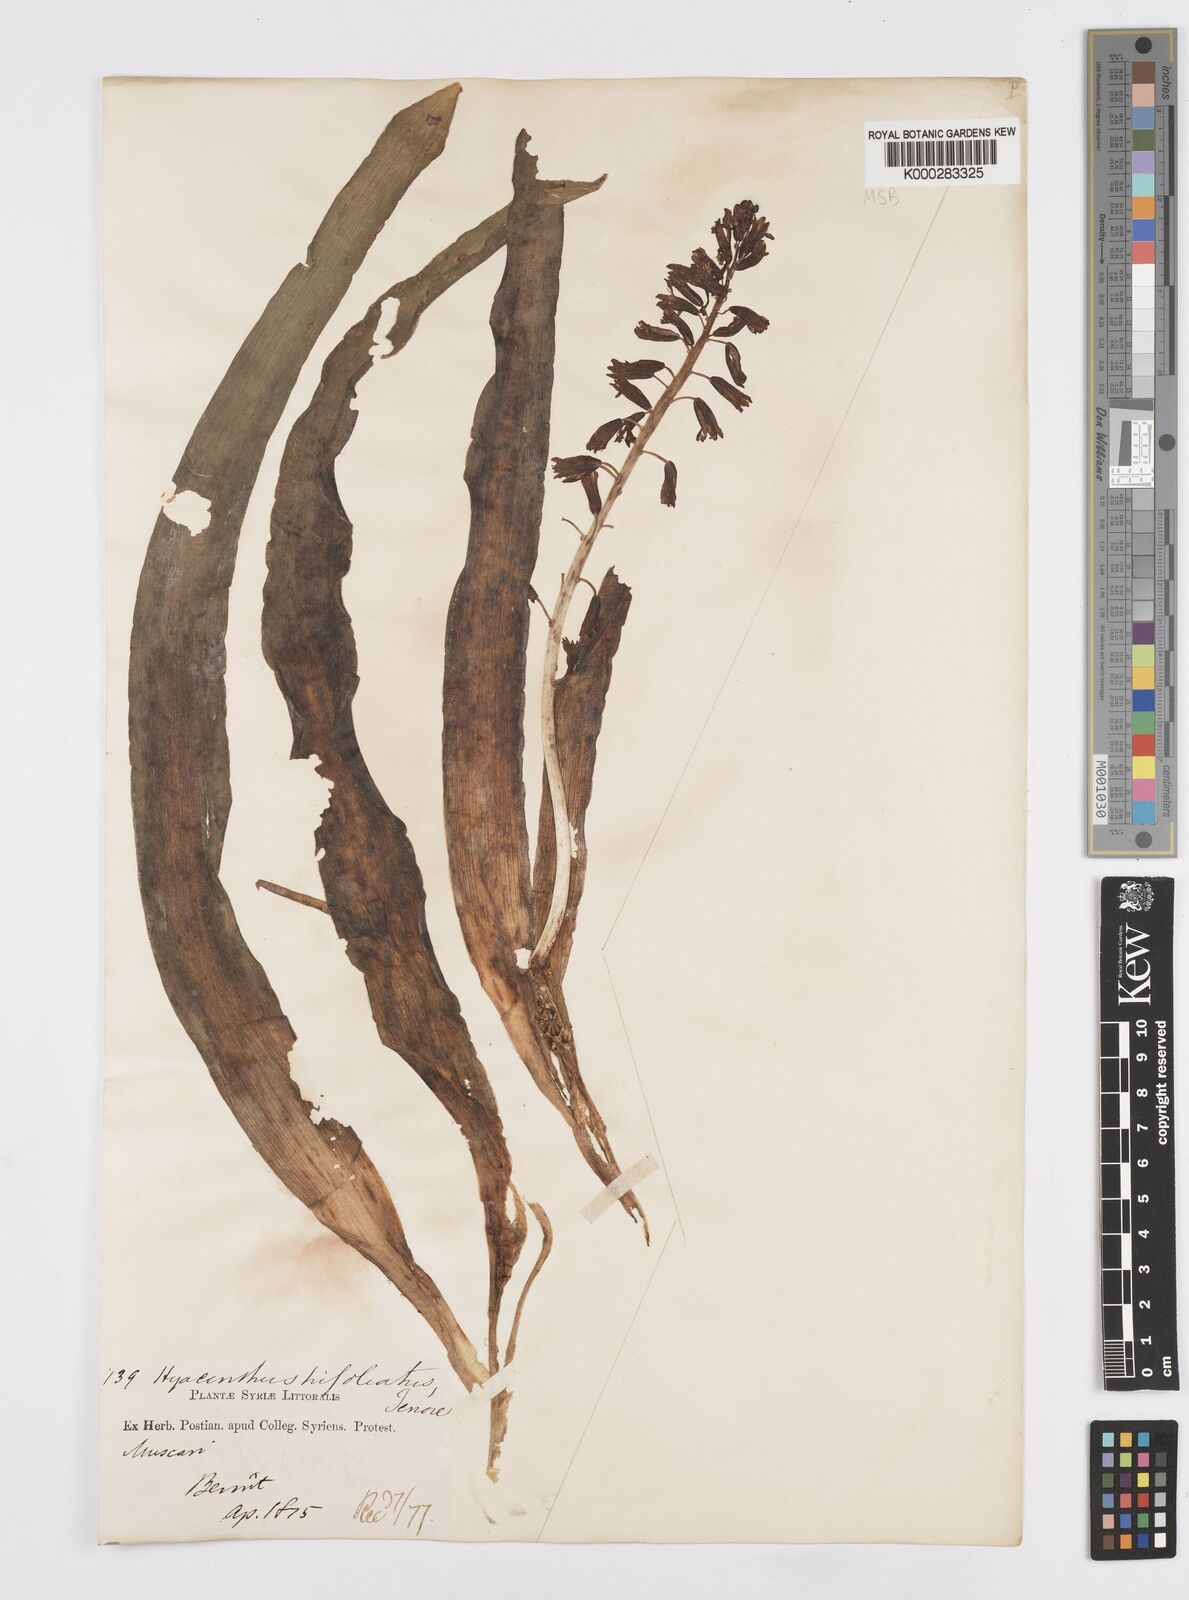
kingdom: Plantae
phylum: Tracheophyta
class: Liliopsida
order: Asparagales
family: Asparagaceae
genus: Bellevalia
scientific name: Bellevalia trifoliata
